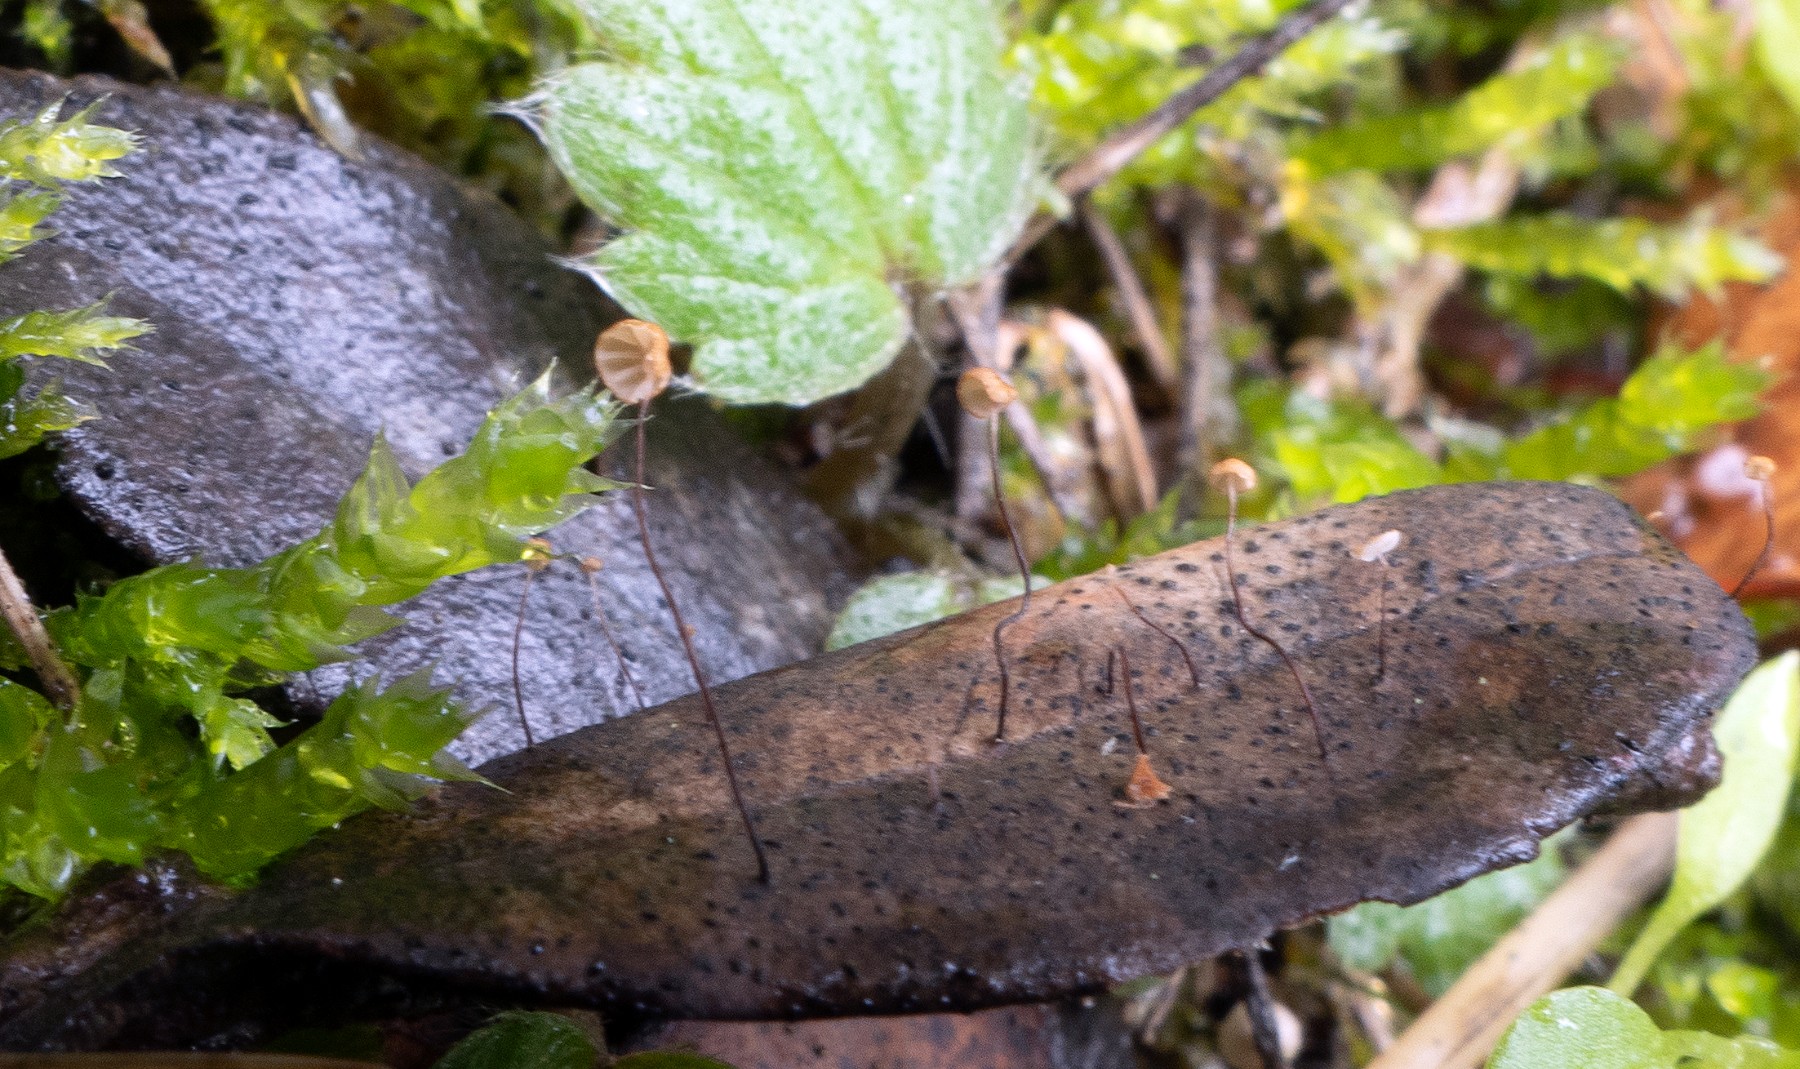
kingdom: Fungi
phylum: Basidiomycota
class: Agaricomycetes
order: Agaricales
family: Physalacriaceae
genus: Cryptomarasmius
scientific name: Cryptomarasmius corbariensis
